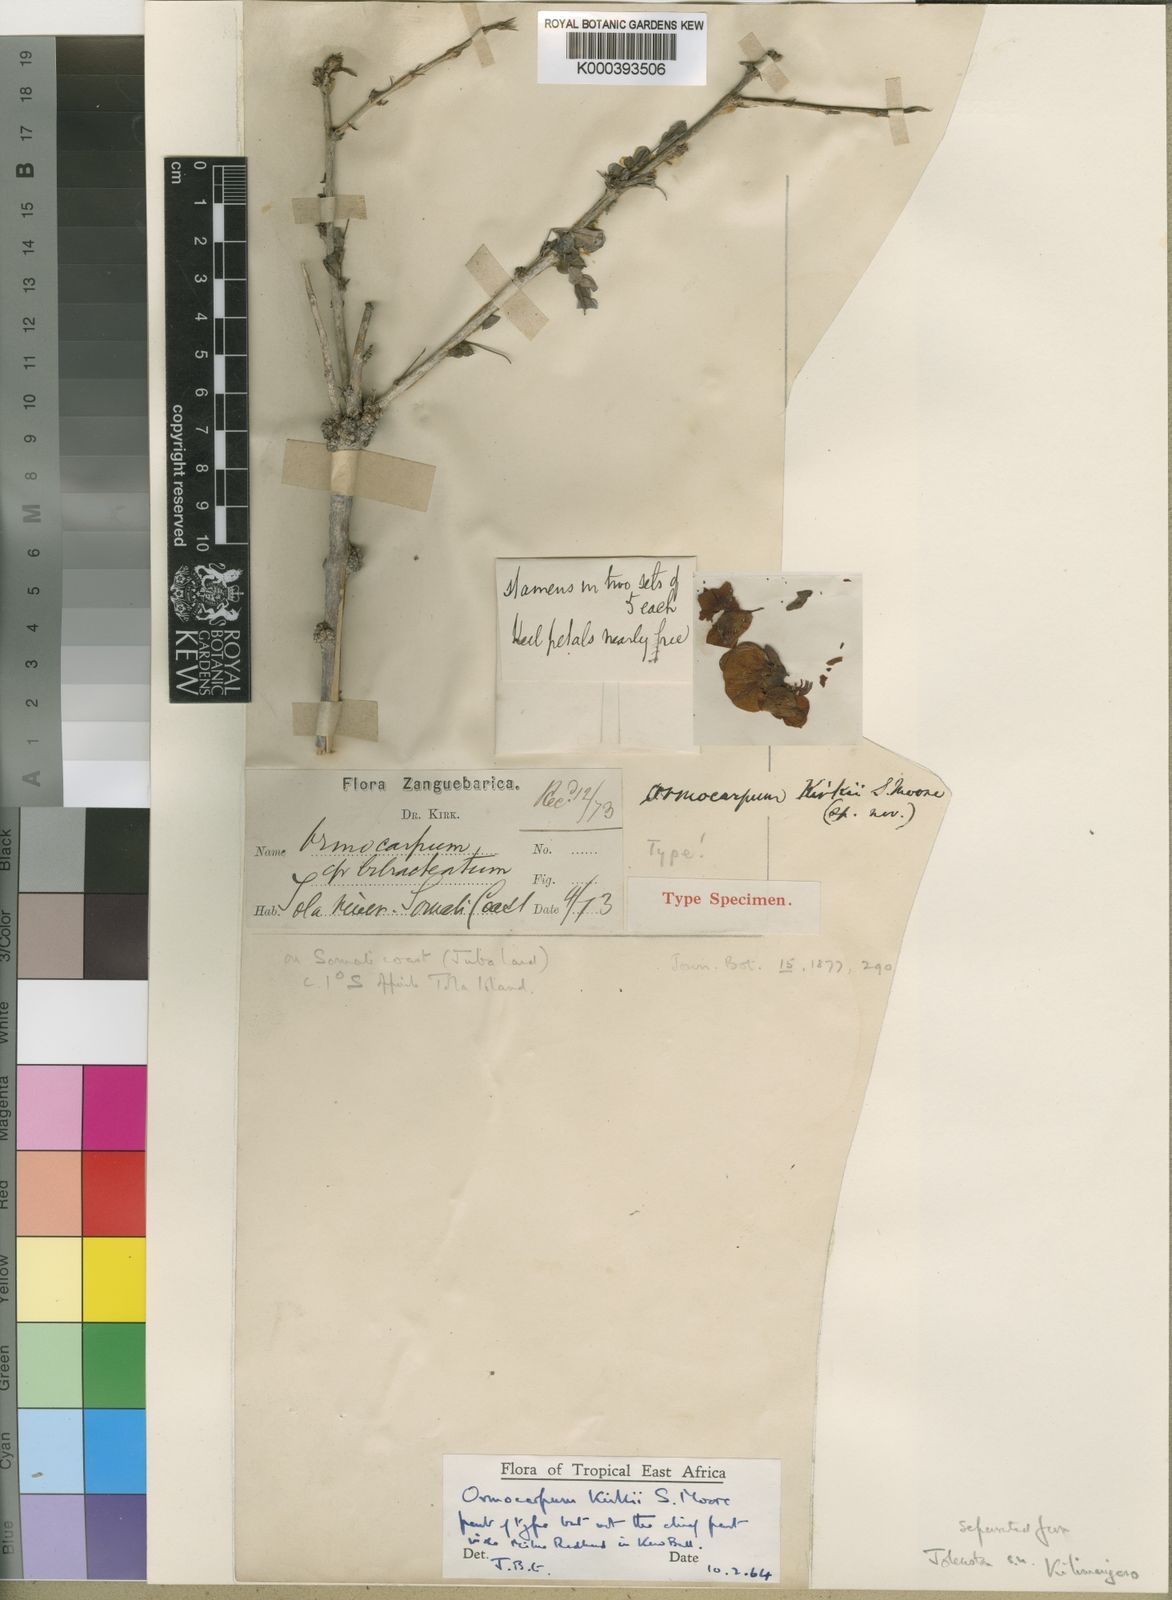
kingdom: Plantae
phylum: Tracheophyta
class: Magnoliopsida
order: Fabales
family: Fabaceae
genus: Ormocarpum
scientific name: Ormocarpum kirkii
